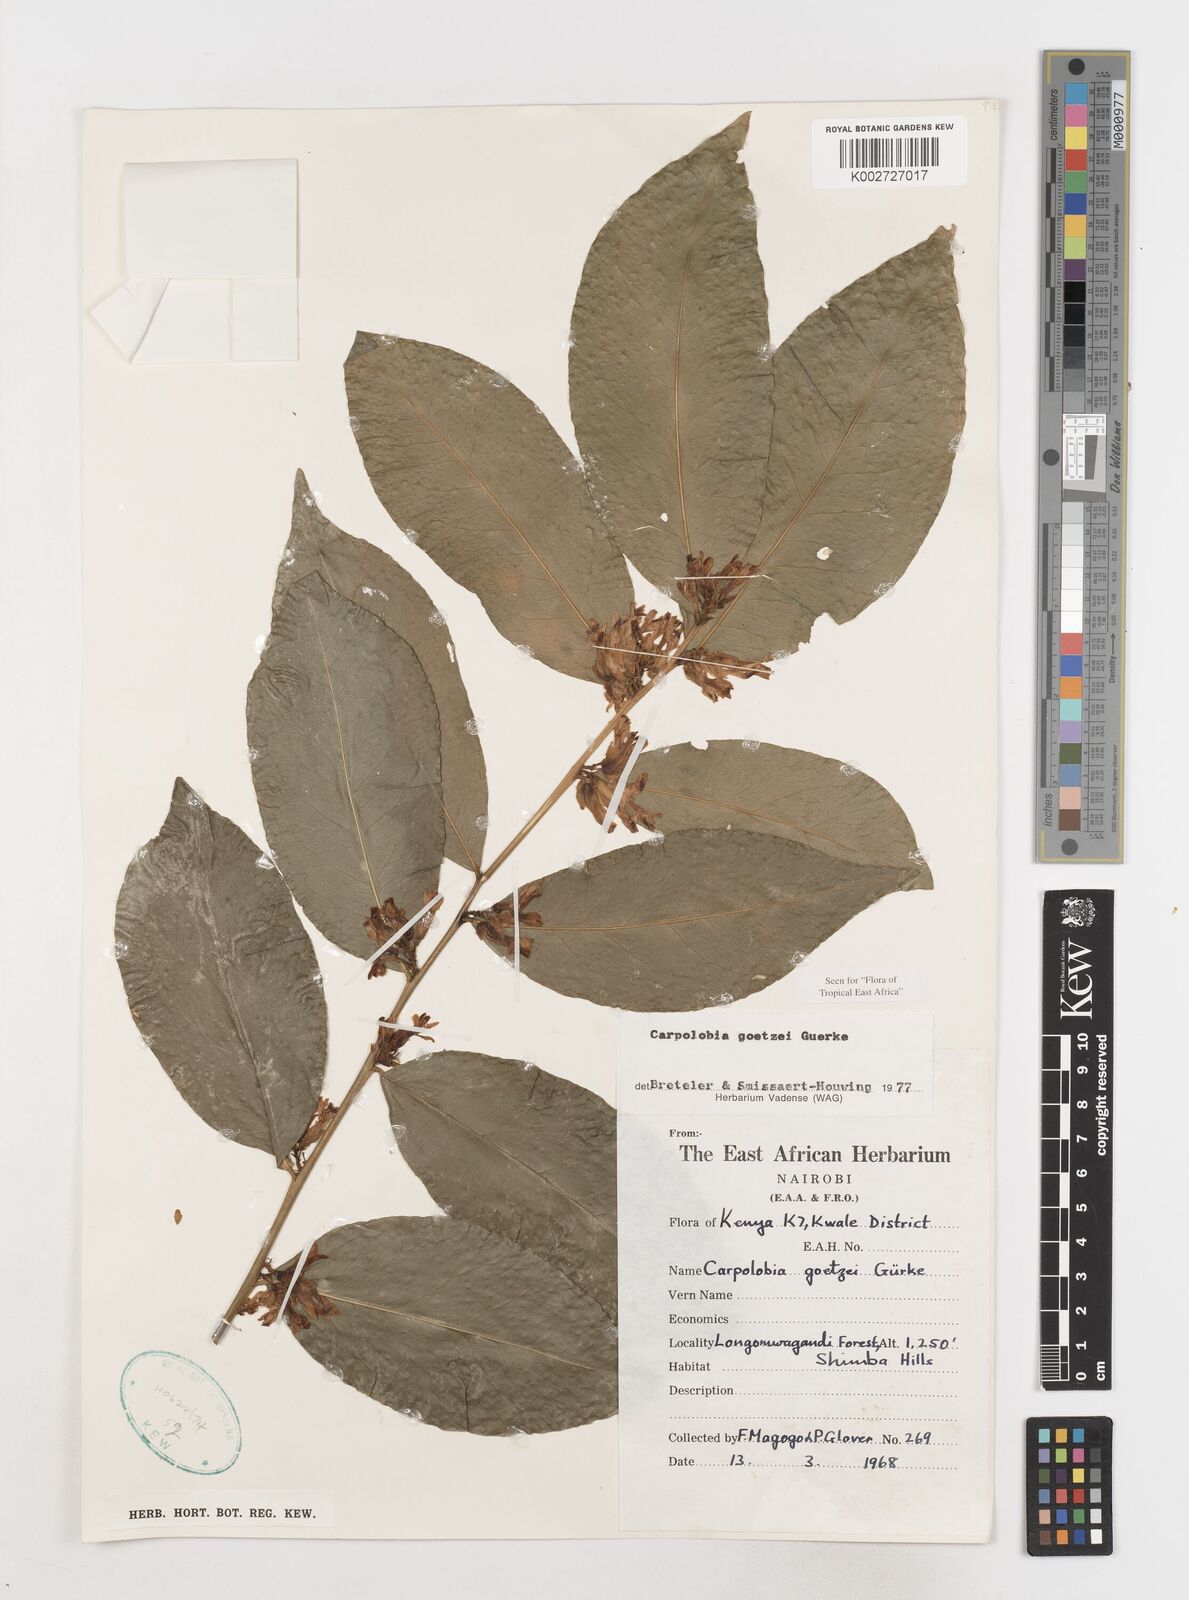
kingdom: Plantae
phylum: Tracheophyta
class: Magnoliopsida
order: Fabales
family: Polygalaceae
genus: Carpolobia
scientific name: Carpolobia goetzei
